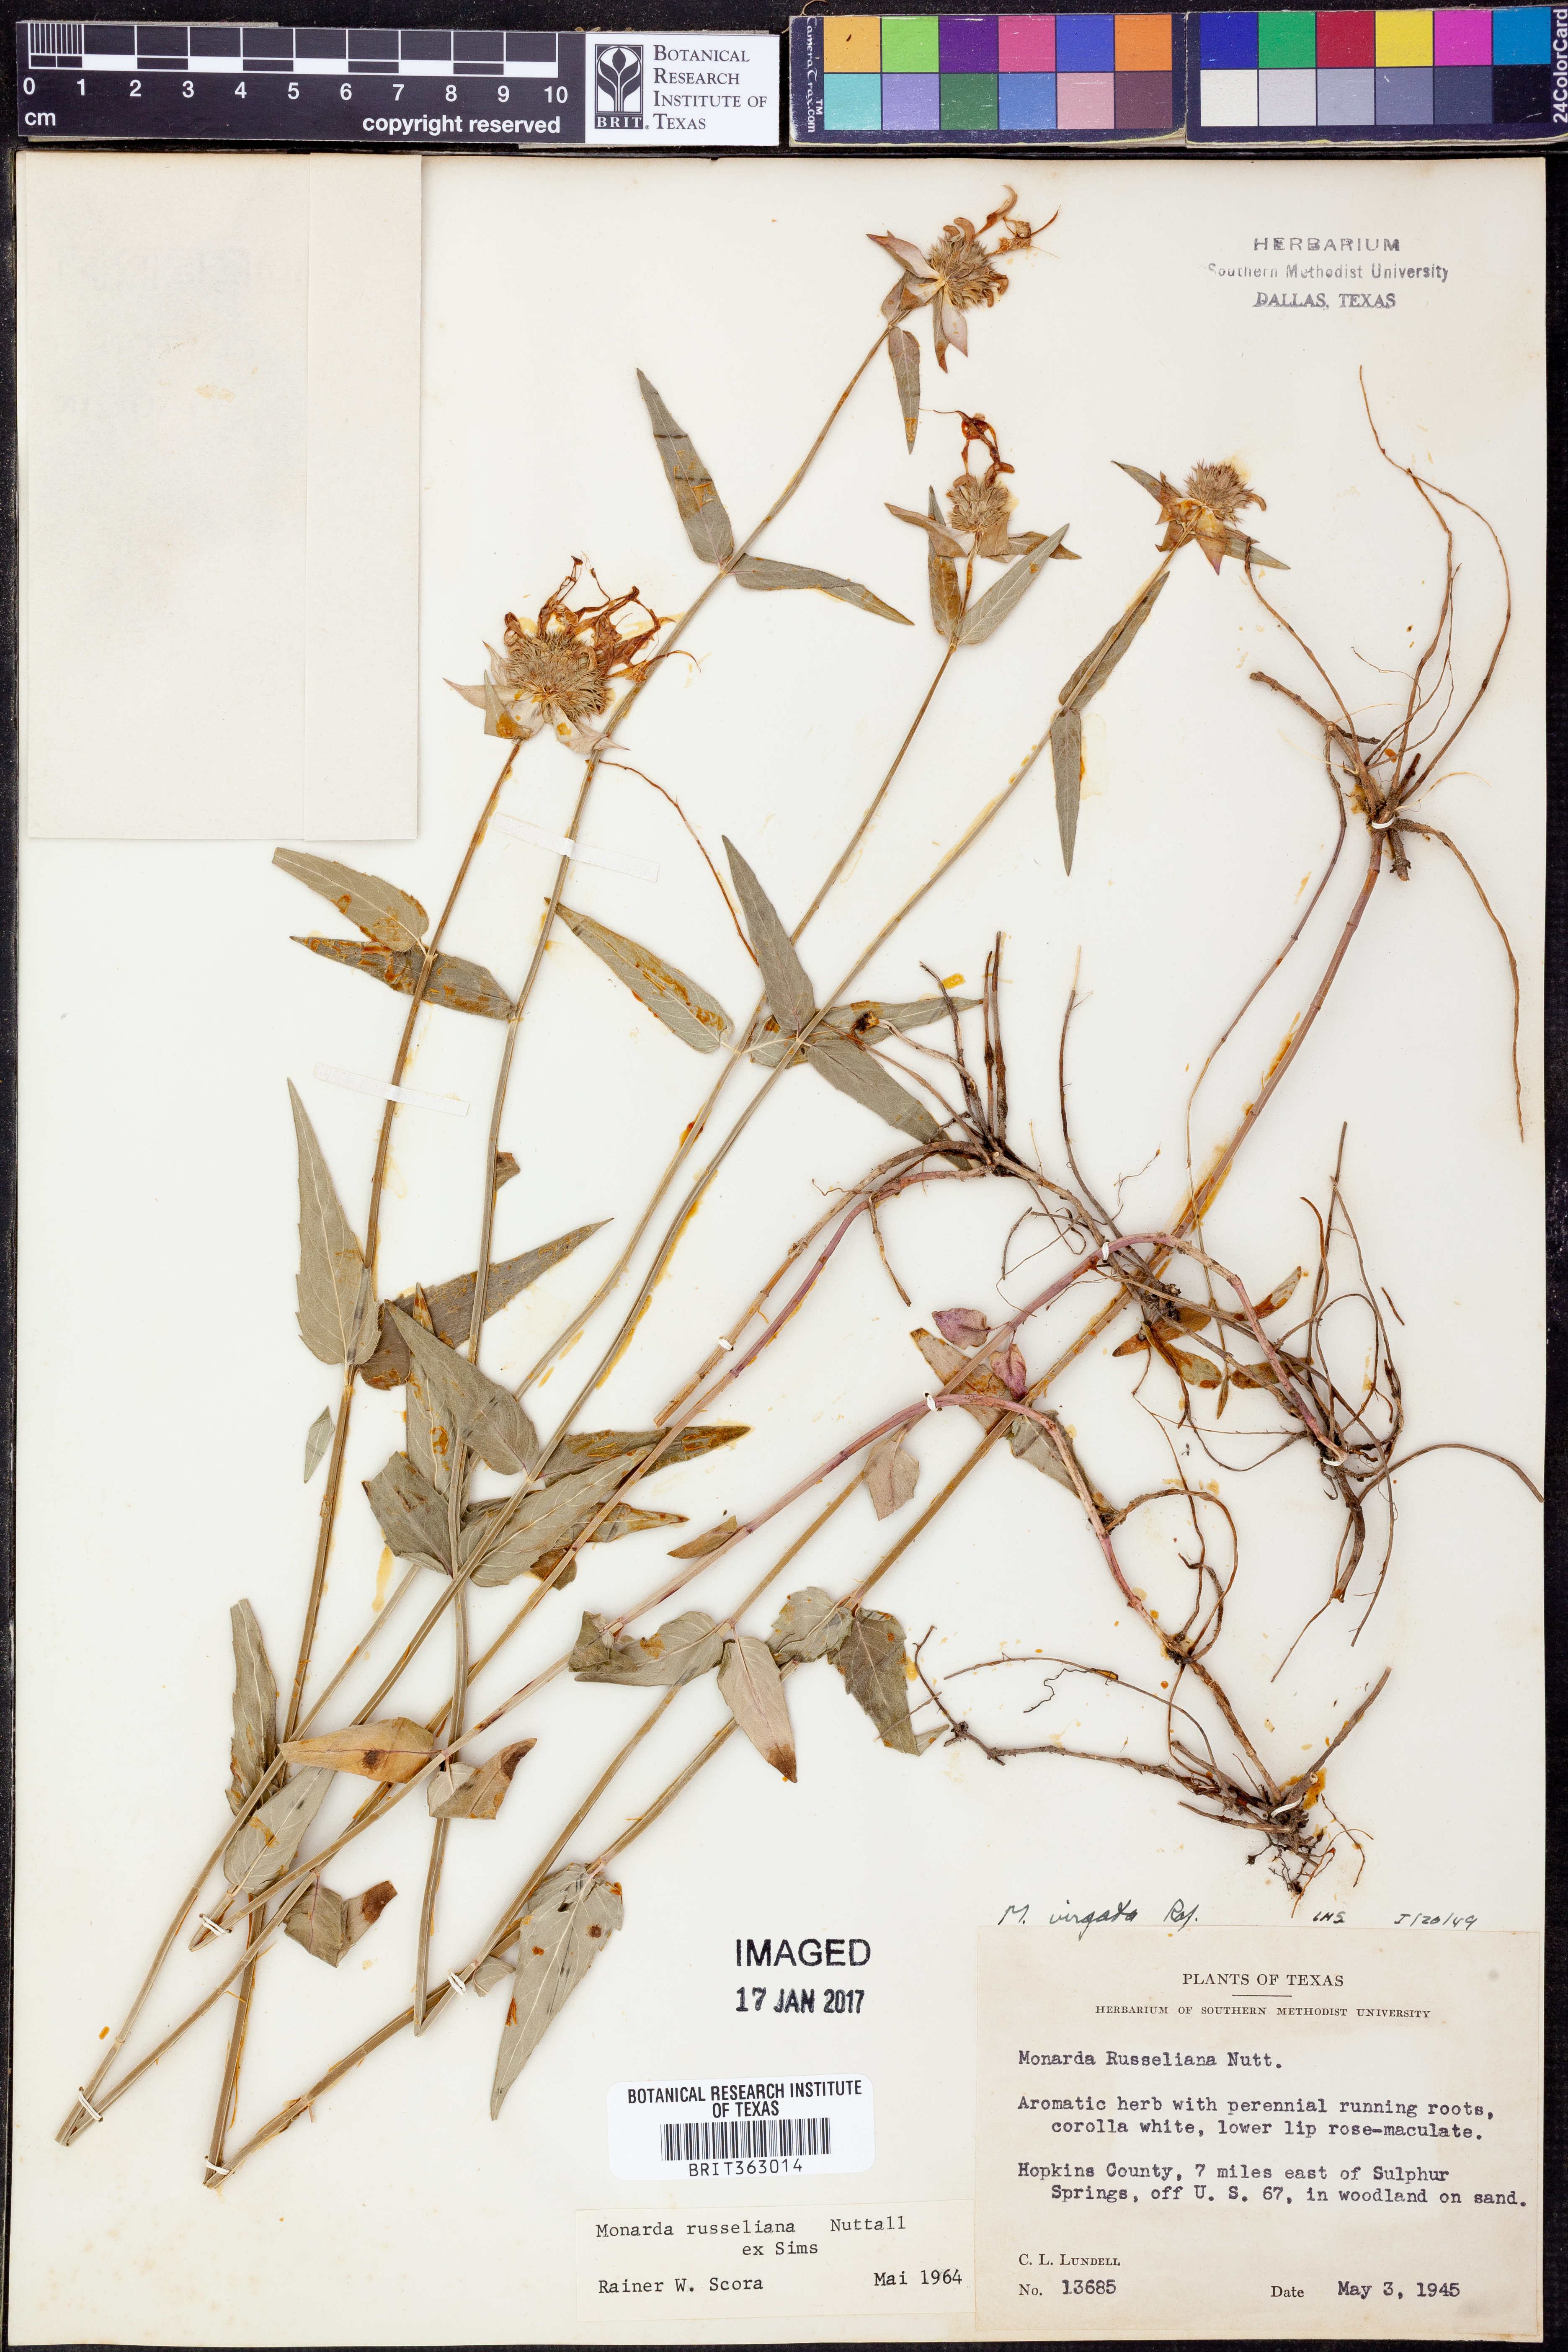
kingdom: Plantae
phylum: Tracheophyta
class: Magnoliopsida
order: Lamiales
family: Lamiaceae
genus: Monarda
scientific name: Monarda russeliana
